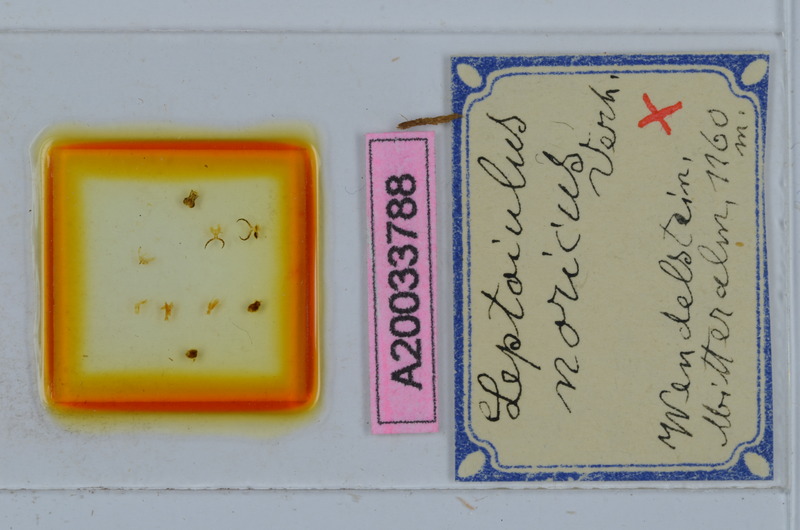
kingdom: Animalia
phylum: Arthropoda
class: Diplopoda
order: Julida
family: Julidae
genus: Leptoiulus
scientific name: Leptoiulus noricus
